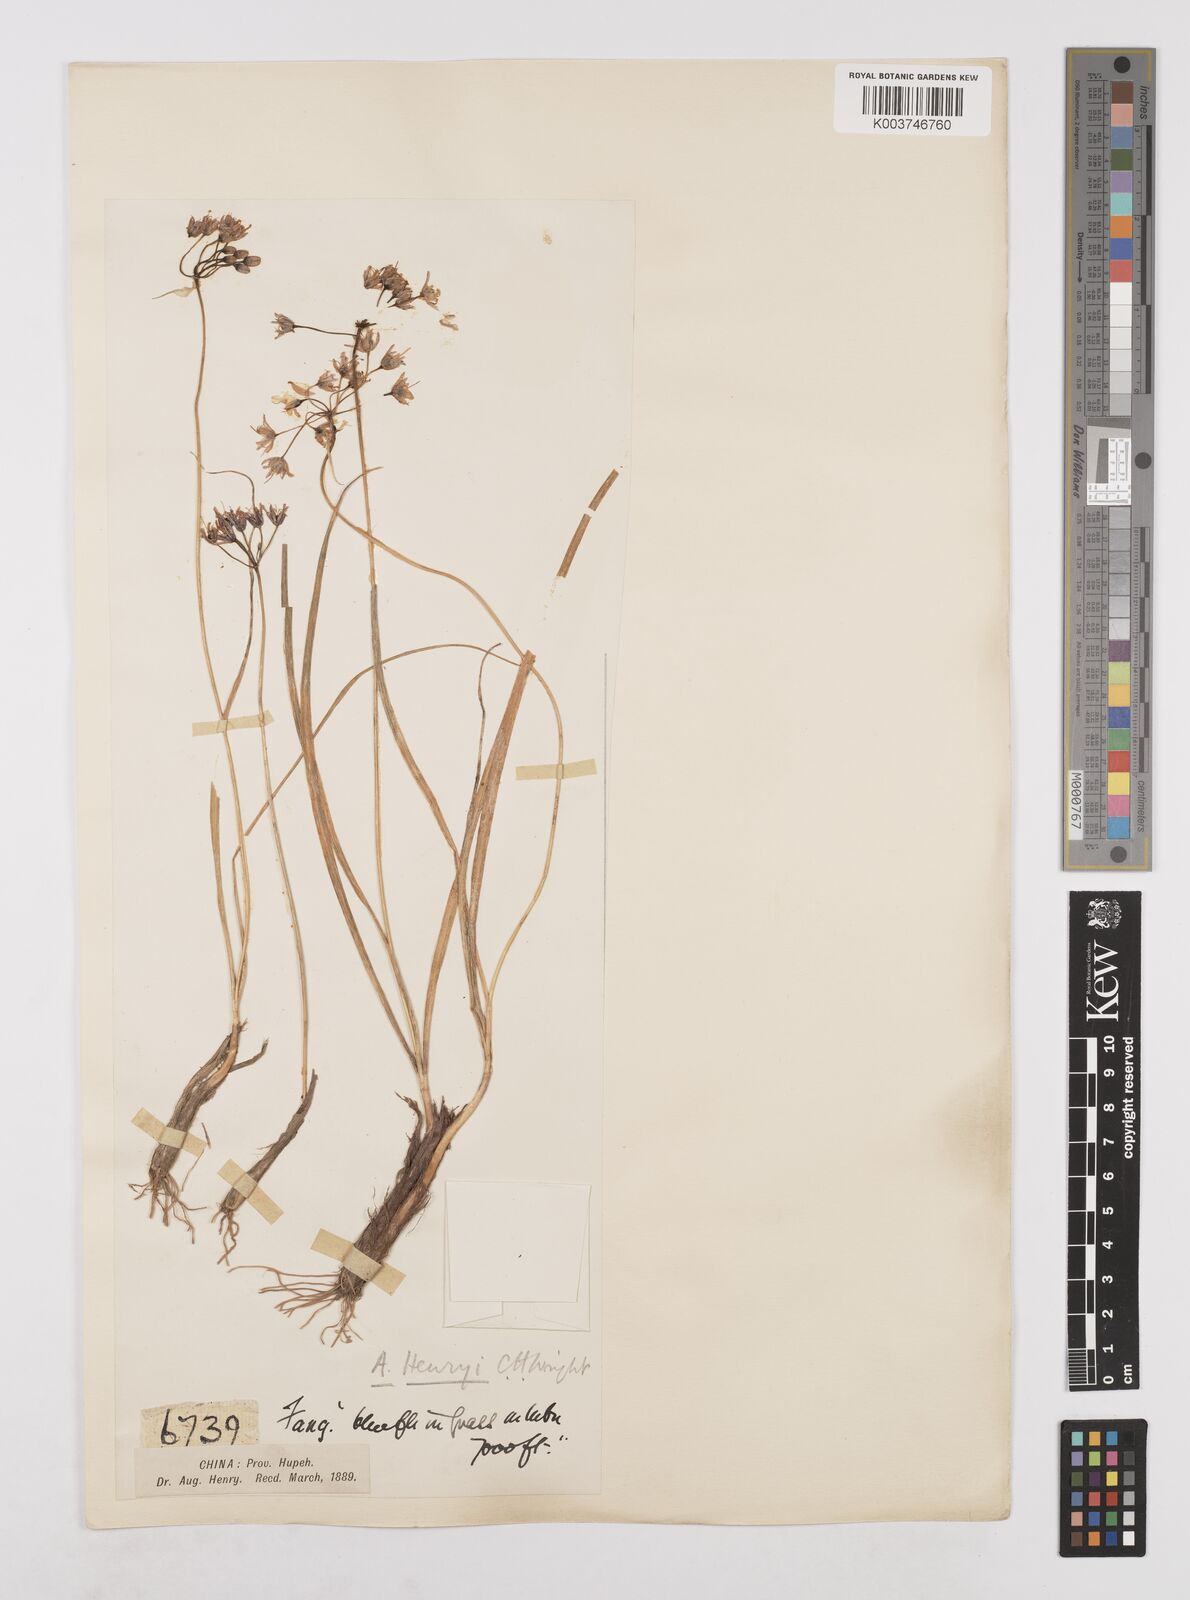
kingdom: Plantae
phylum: Tracheophyta
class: Liliopsida
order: Asparagales
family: Amaryllidaceae
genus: Allium
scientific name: Allium henryi
